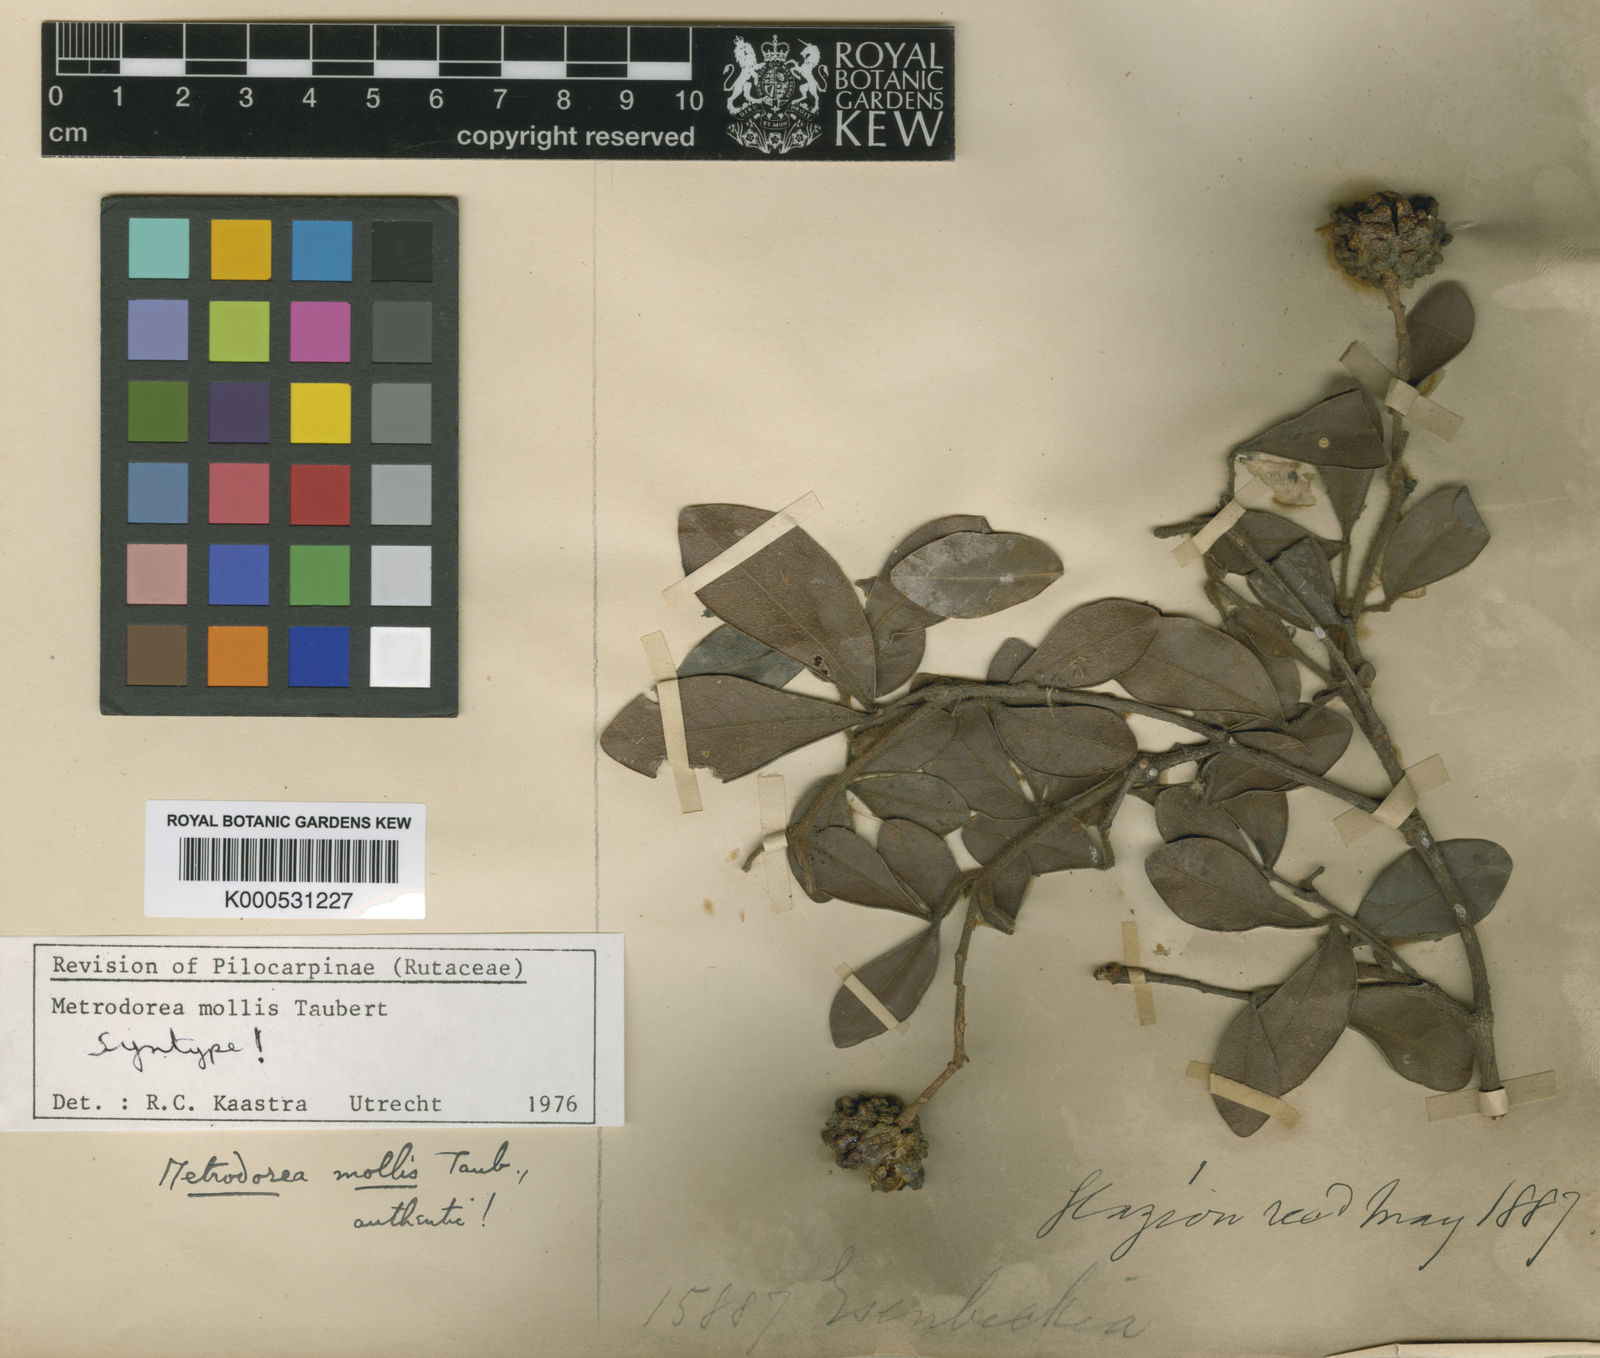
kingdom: Plantae
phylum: Tracheophyta
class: Magnoliopsida
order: Sapindales
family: Rutaceae
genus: Metrodorea
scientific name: Metrodorea mollis
